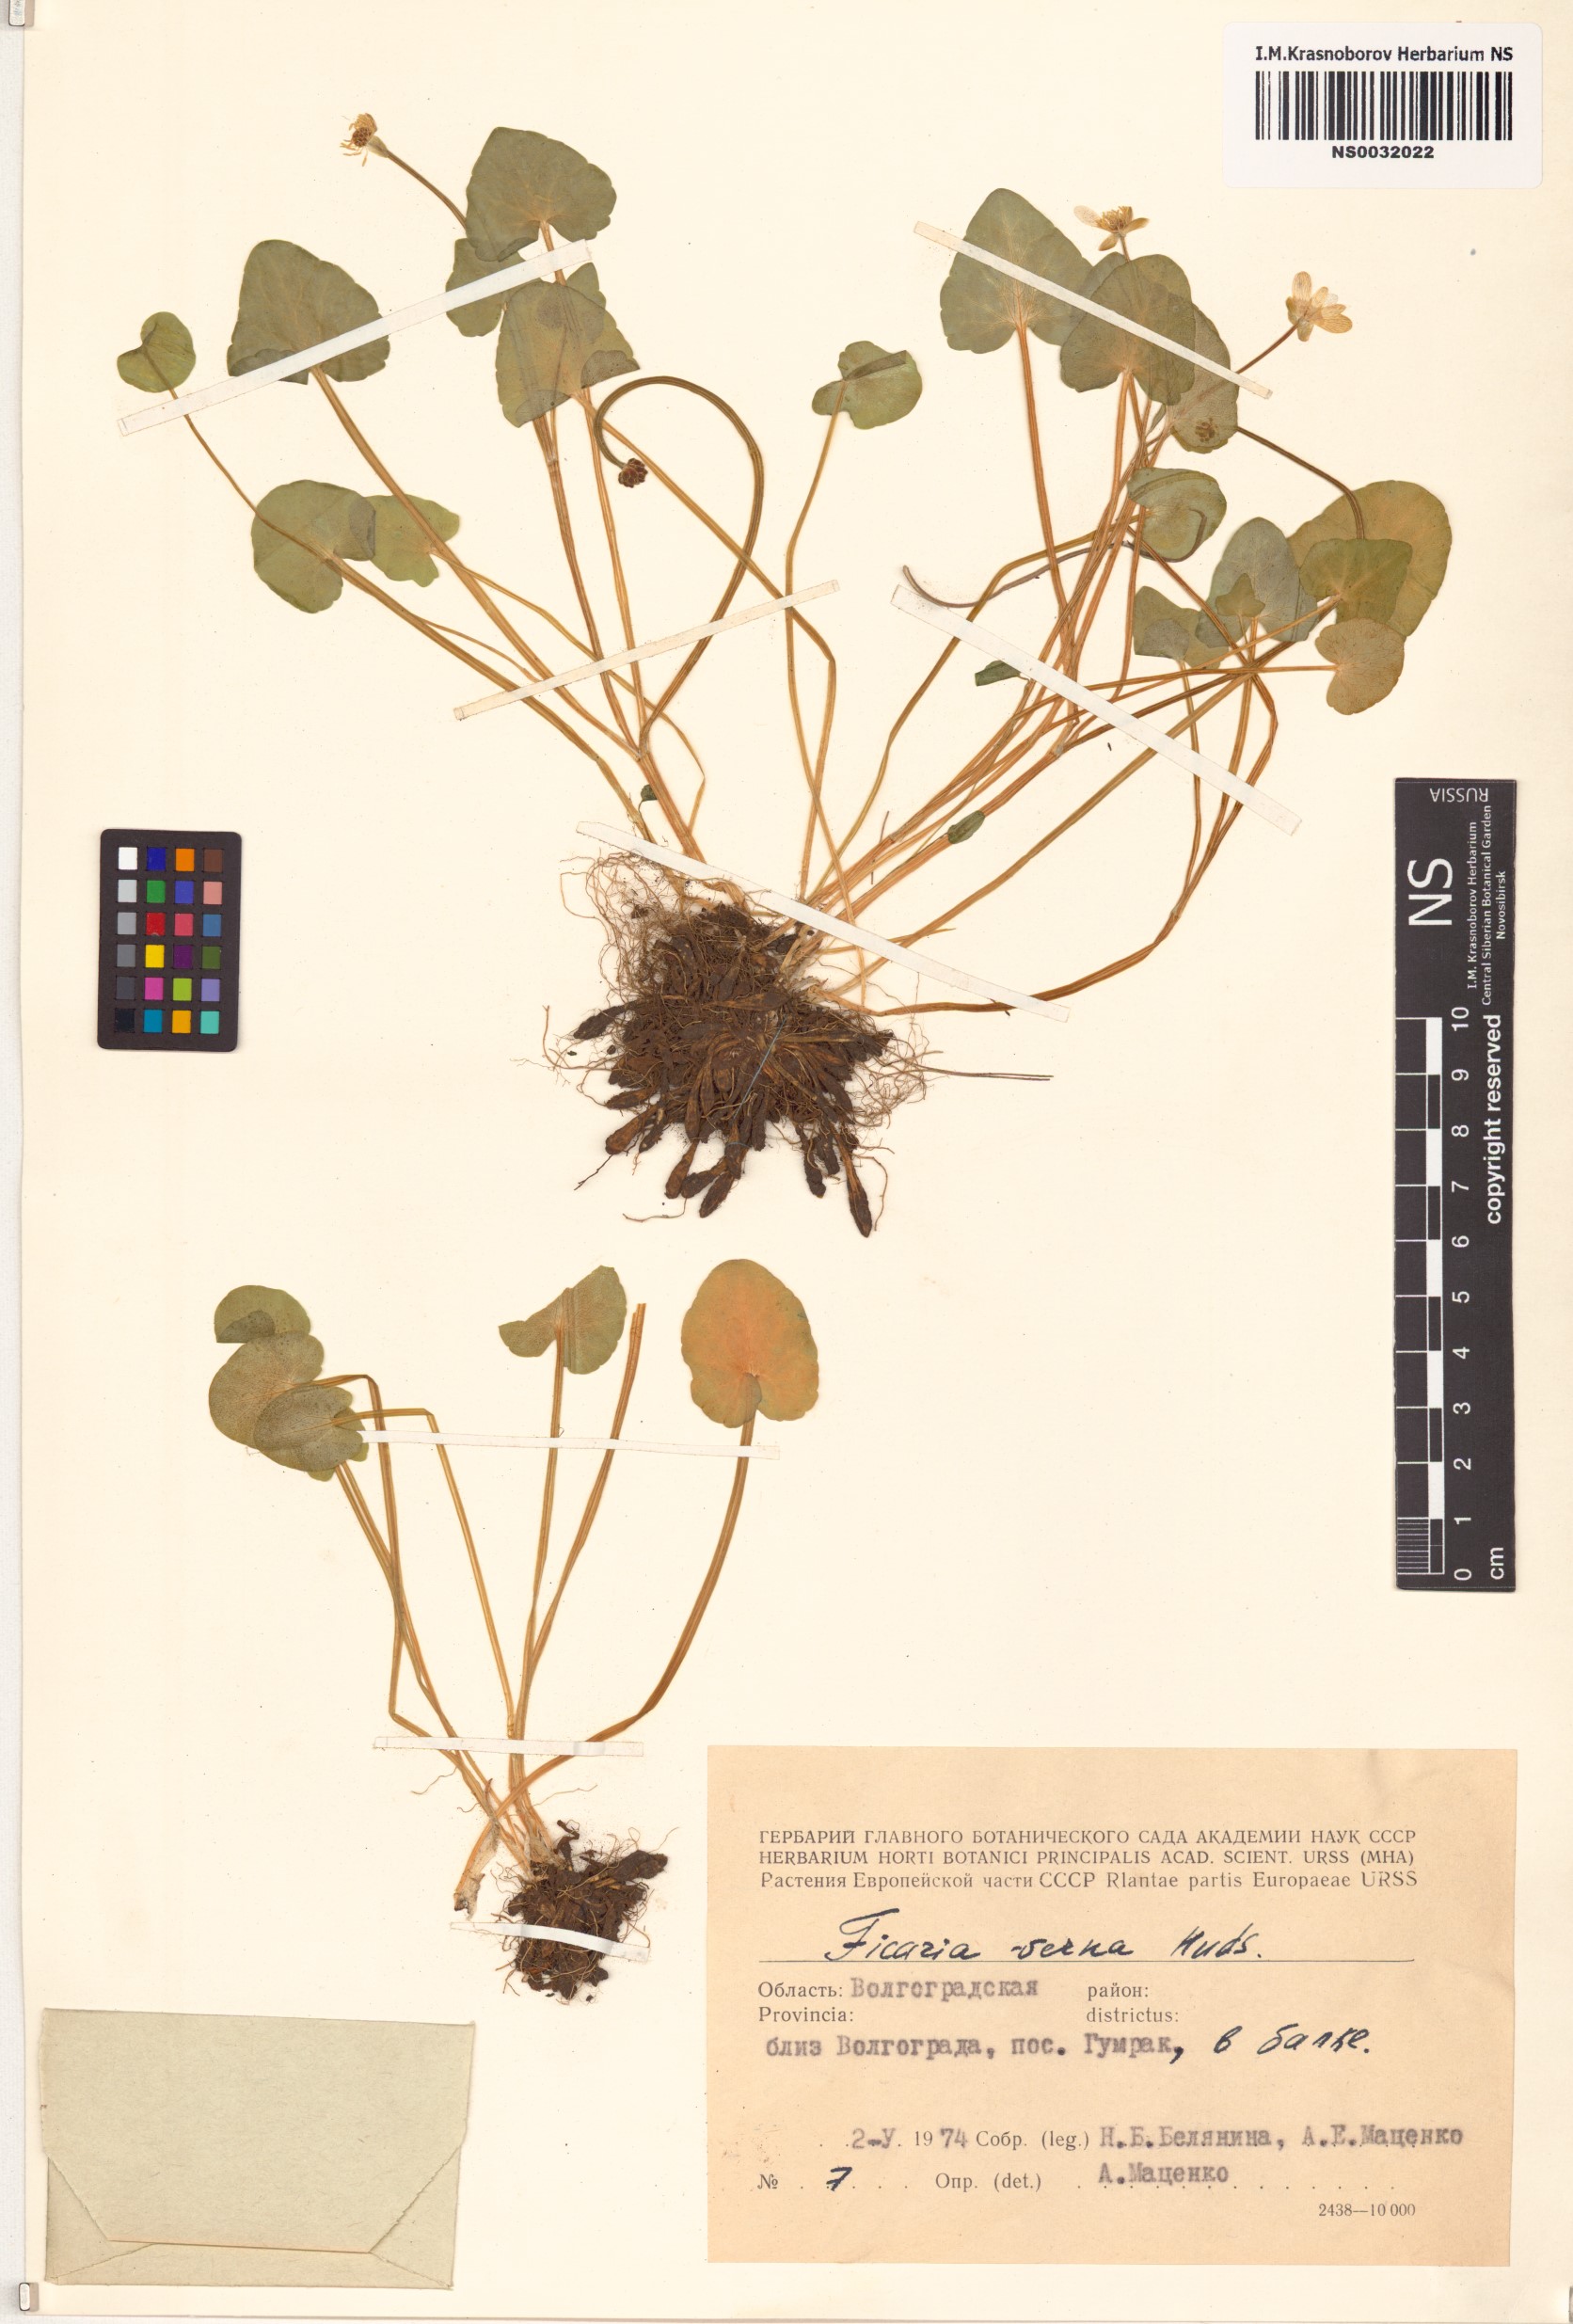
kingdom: Plantae
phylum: Tracheophyta
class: Magnoliopsida
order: Ranunculales
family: Ranunculaceae
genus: Ficaria
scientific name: Ficaria verna
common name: Lesser celandine
